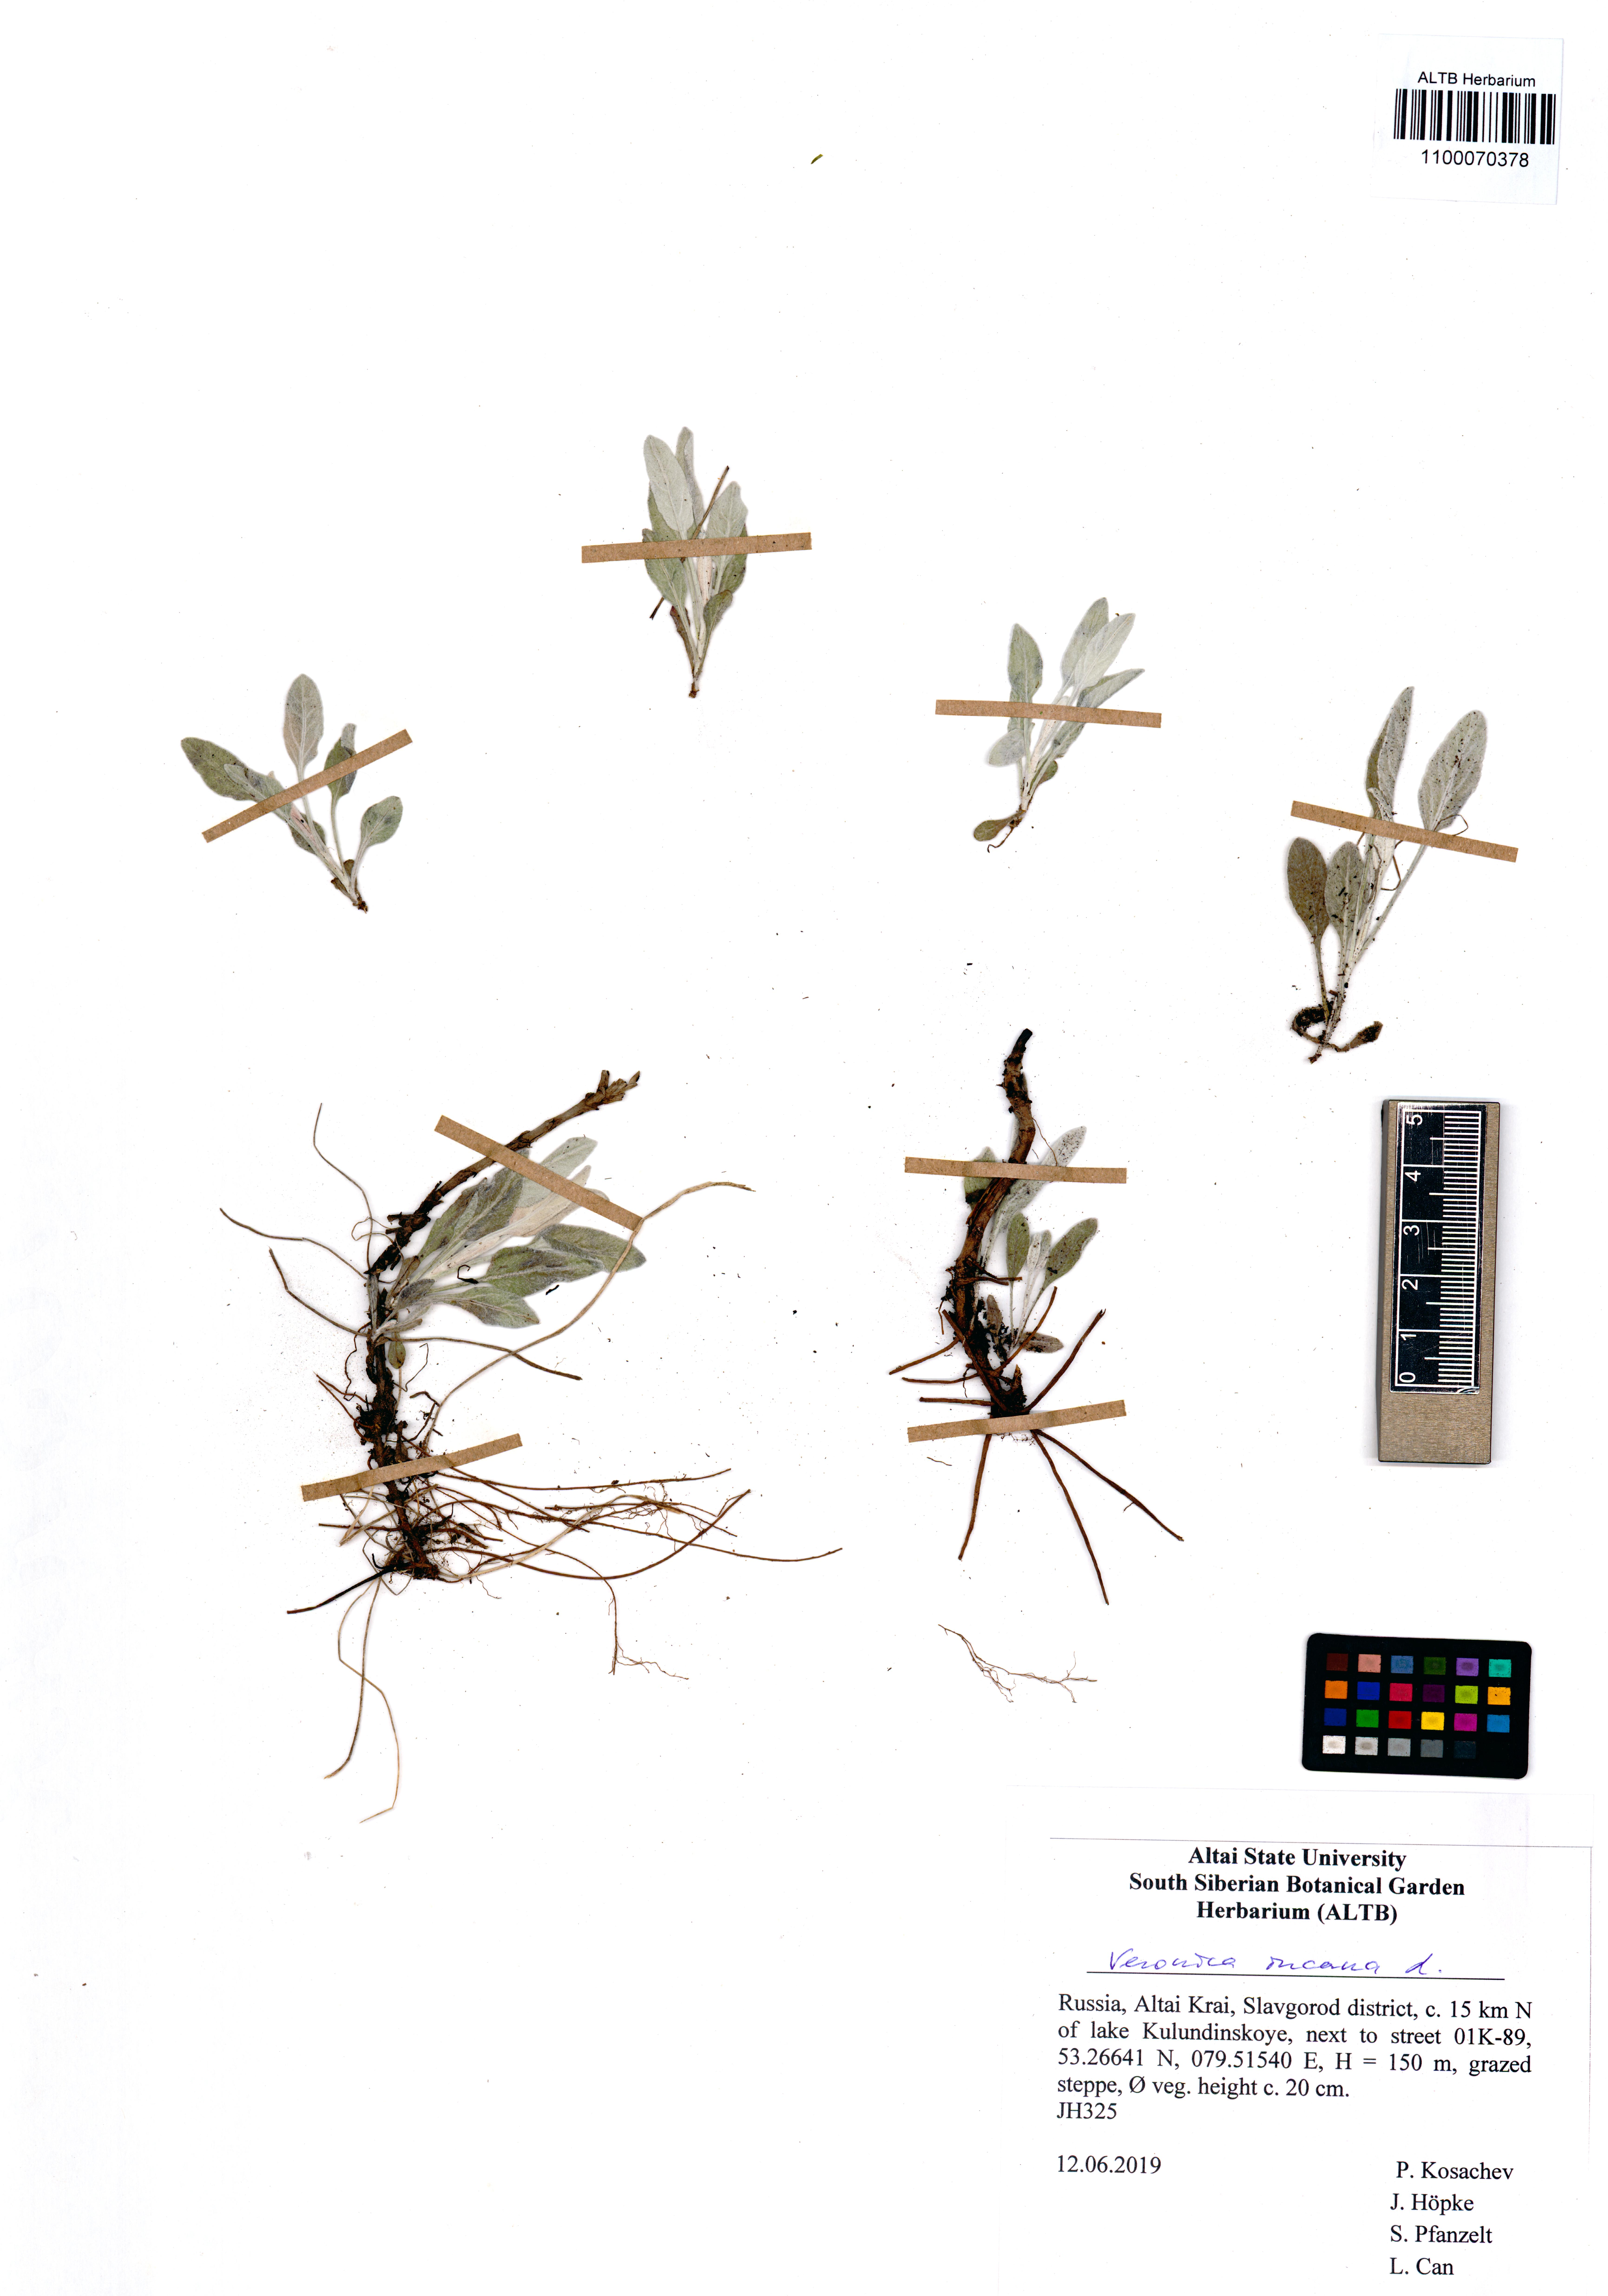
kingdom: Plantae
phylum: Tracheophyta
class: Magnoliopsida
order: Lamiales
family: Plantaginaceae
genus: Veronica
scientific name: Veronica incana
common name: Silver speedwell
